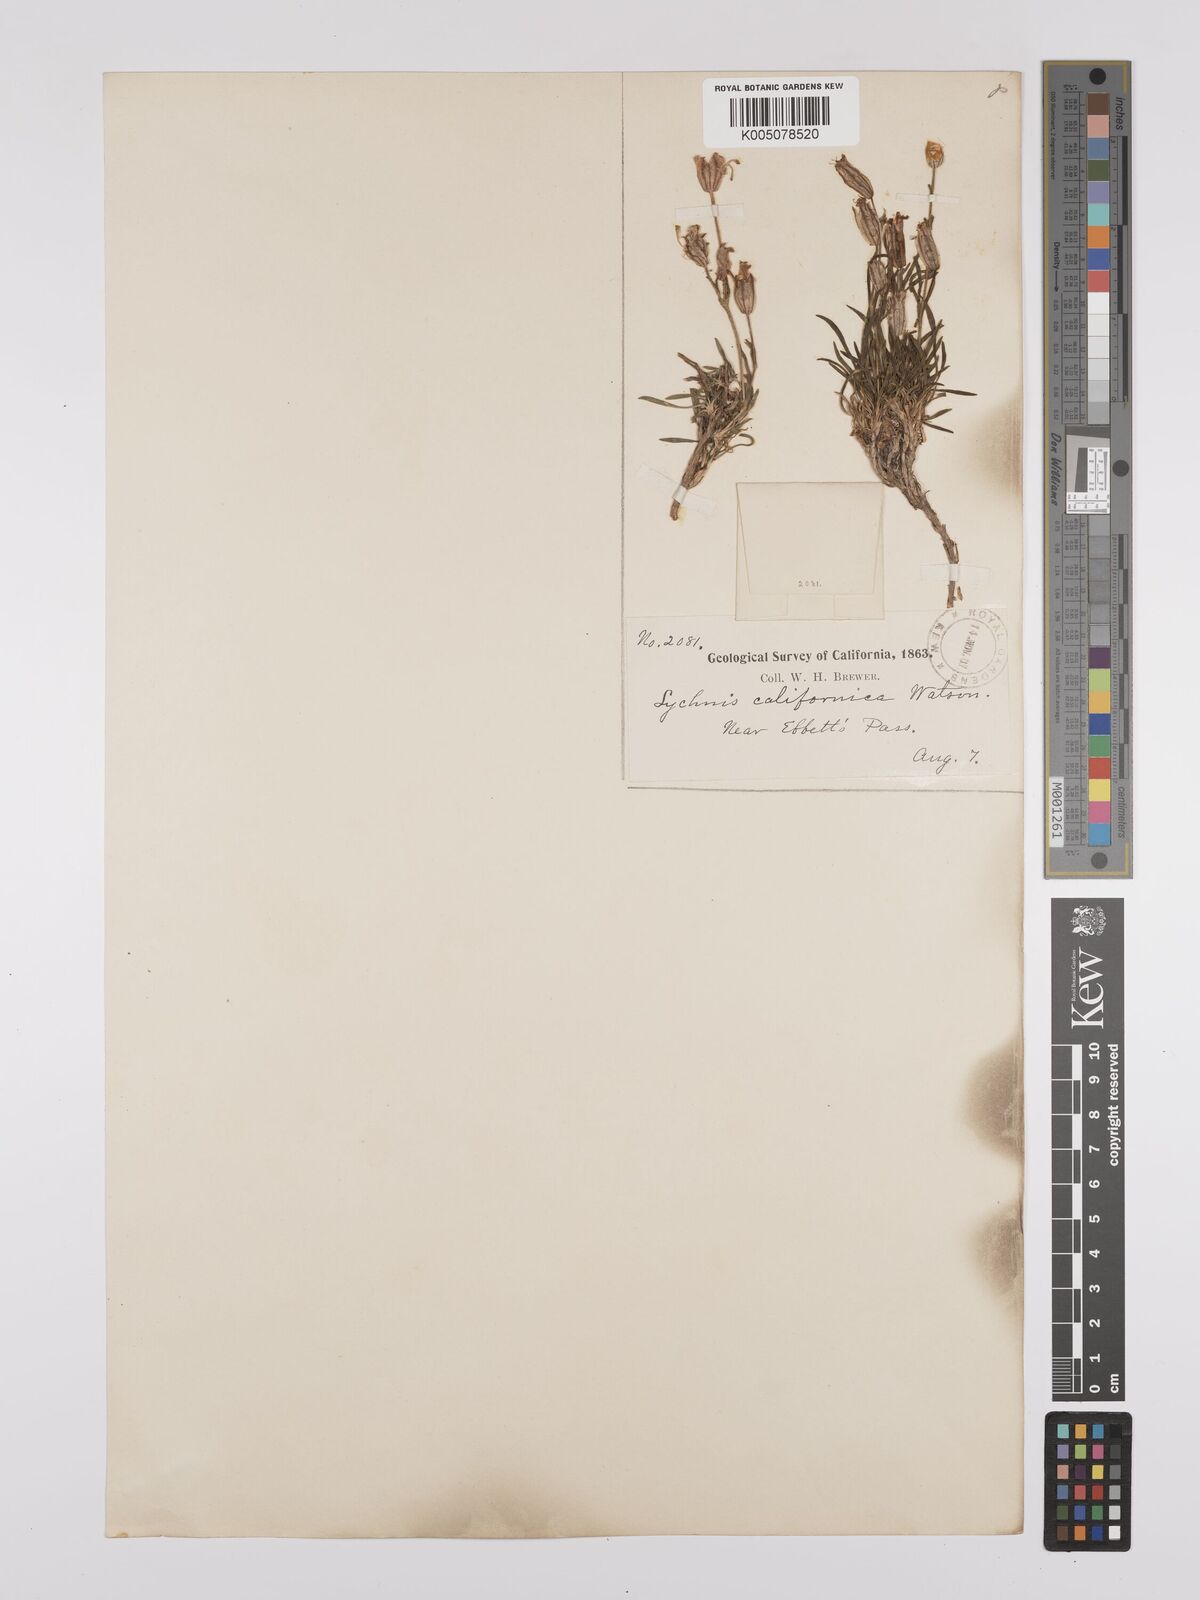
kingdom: Plantae
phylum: Tracheophyta
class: Magnoliopsida
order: Caryophyllales
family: Caryophyllaceae
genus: Silene
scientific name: Silene sargentii
